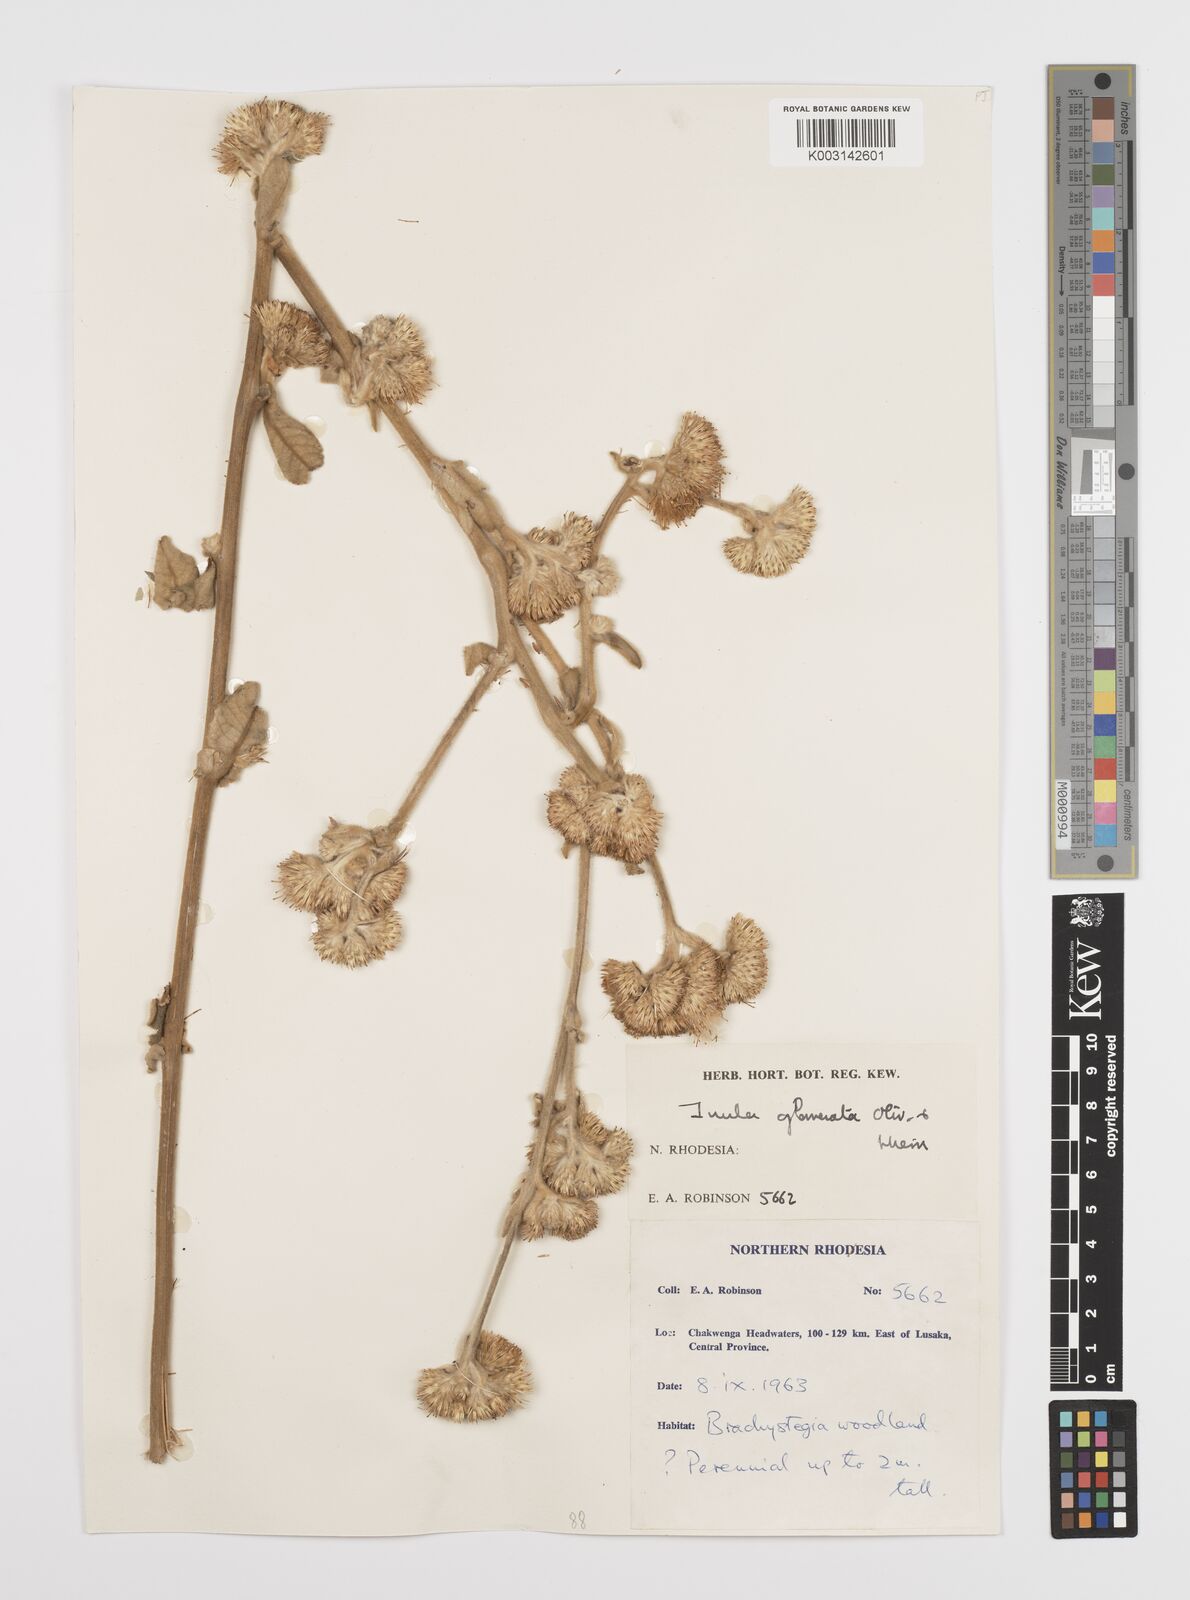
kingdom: Plantae
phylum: Tracheophyta
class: Magnoliopsida
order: Asterales
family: Asteraceae
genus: Inula
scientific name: Inula glomerata
